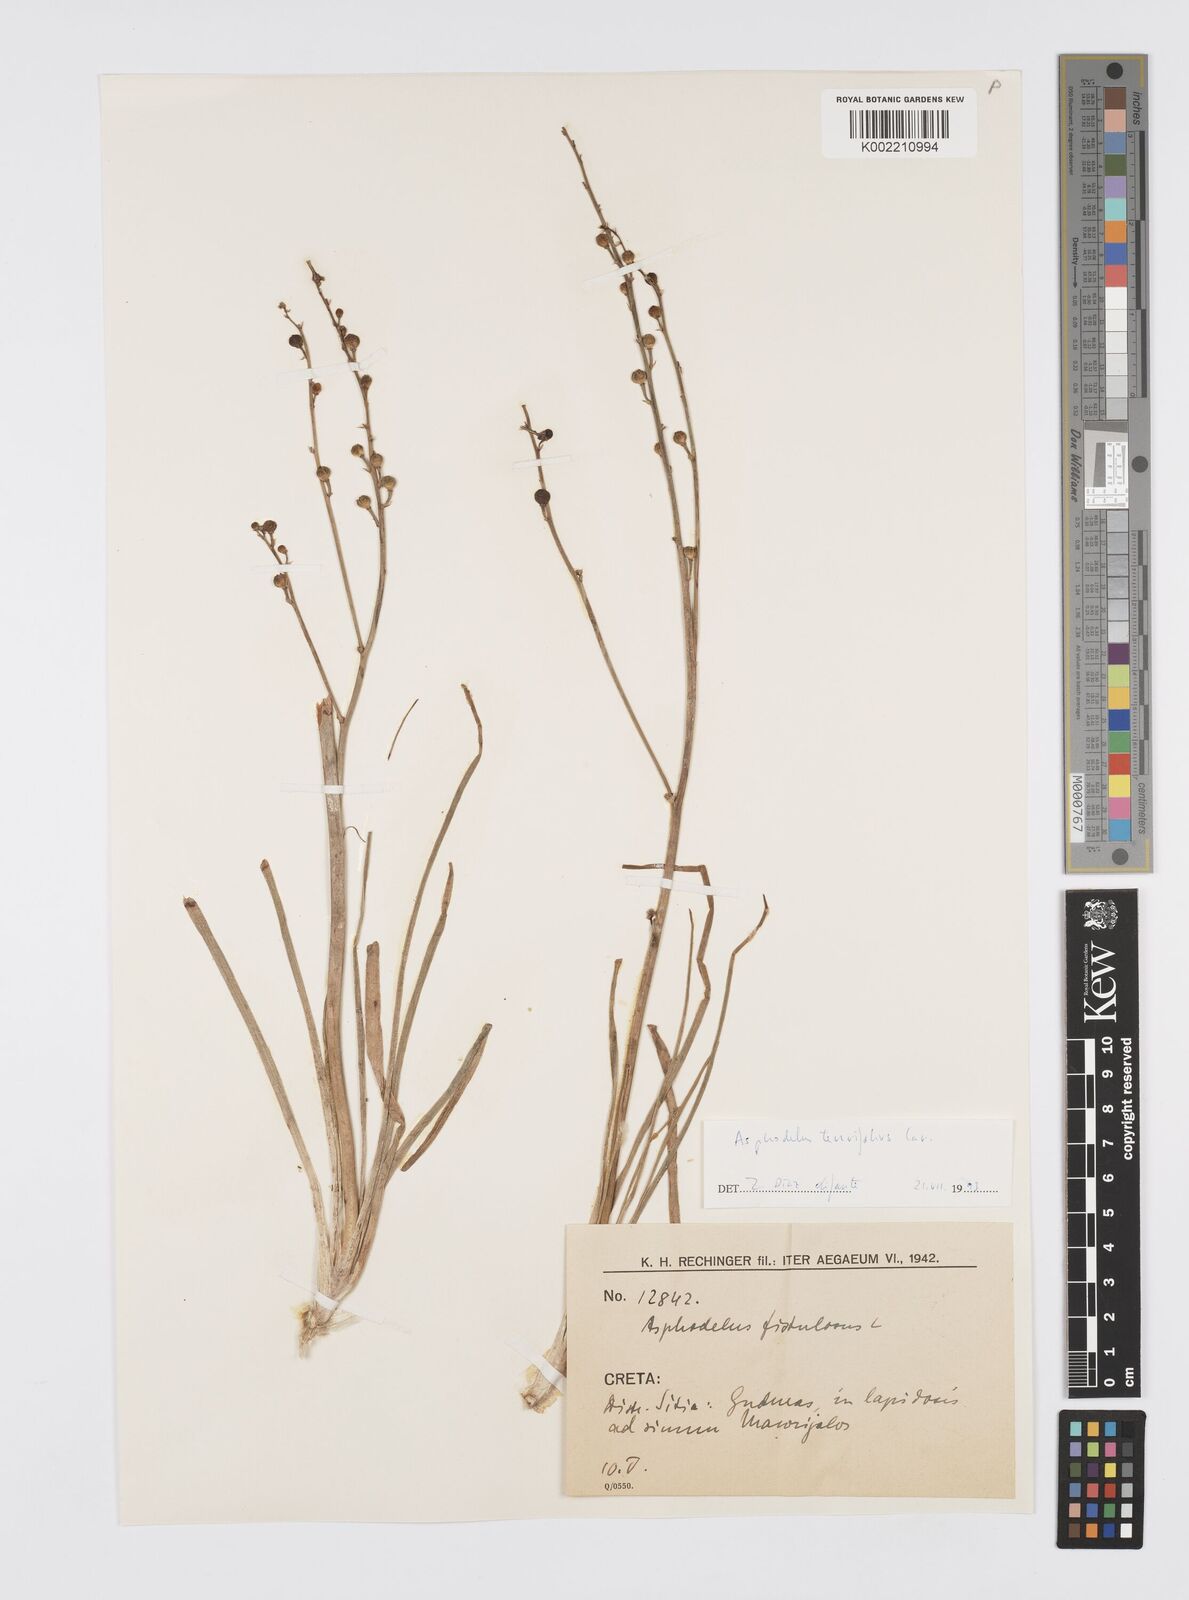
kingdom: Plantae
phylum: Tracheophyta
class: Liliopsida
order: Asparagales
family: Asphodelaceae
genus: Asphodelus
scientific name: Asphodelus fistulosus
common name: Onionweed
